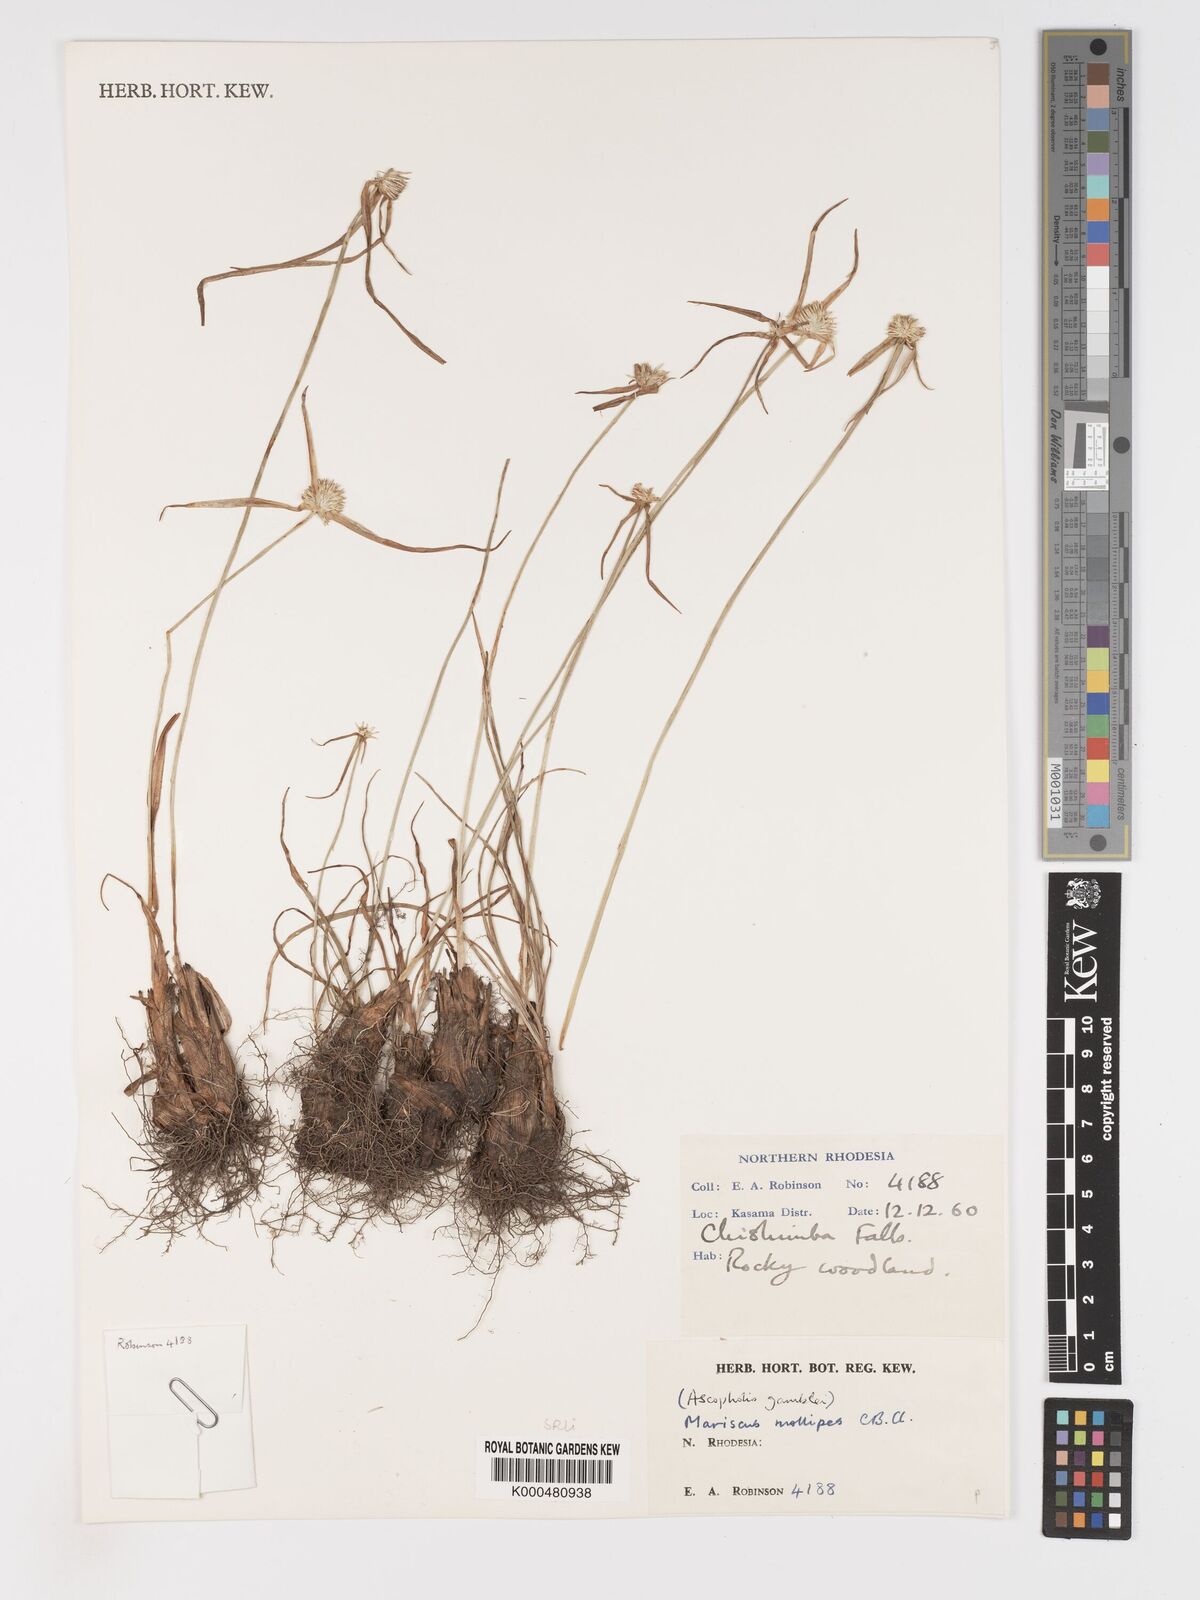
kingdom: Plantae
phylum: Tracheophyta
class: Liliopsida
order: Poales
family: Cyperaceae
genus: Cyperus
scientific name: Cyperus mollipes
